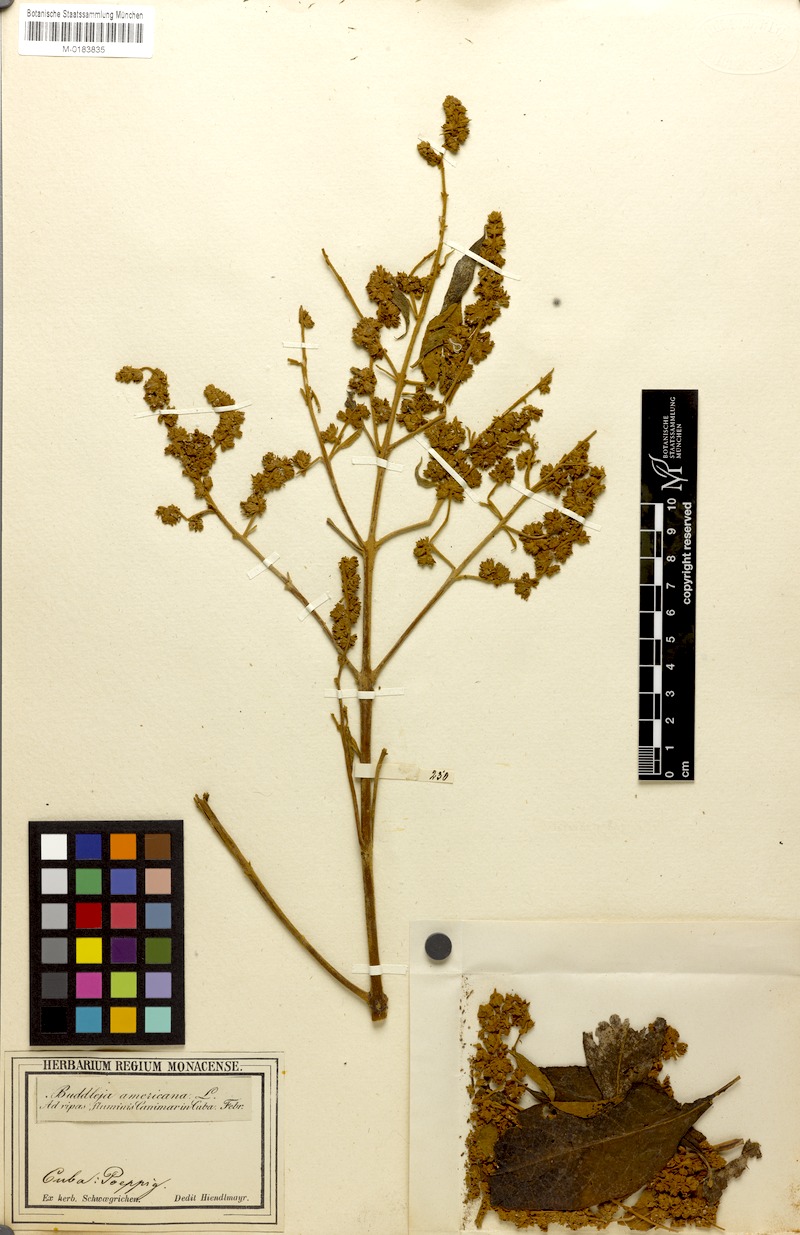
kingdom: Plantae
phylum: Tracheophyta
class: Magnoliopsida
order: Lamiales
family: Scrophulariaceae
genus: Buddleja
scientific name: Buddleja americana
